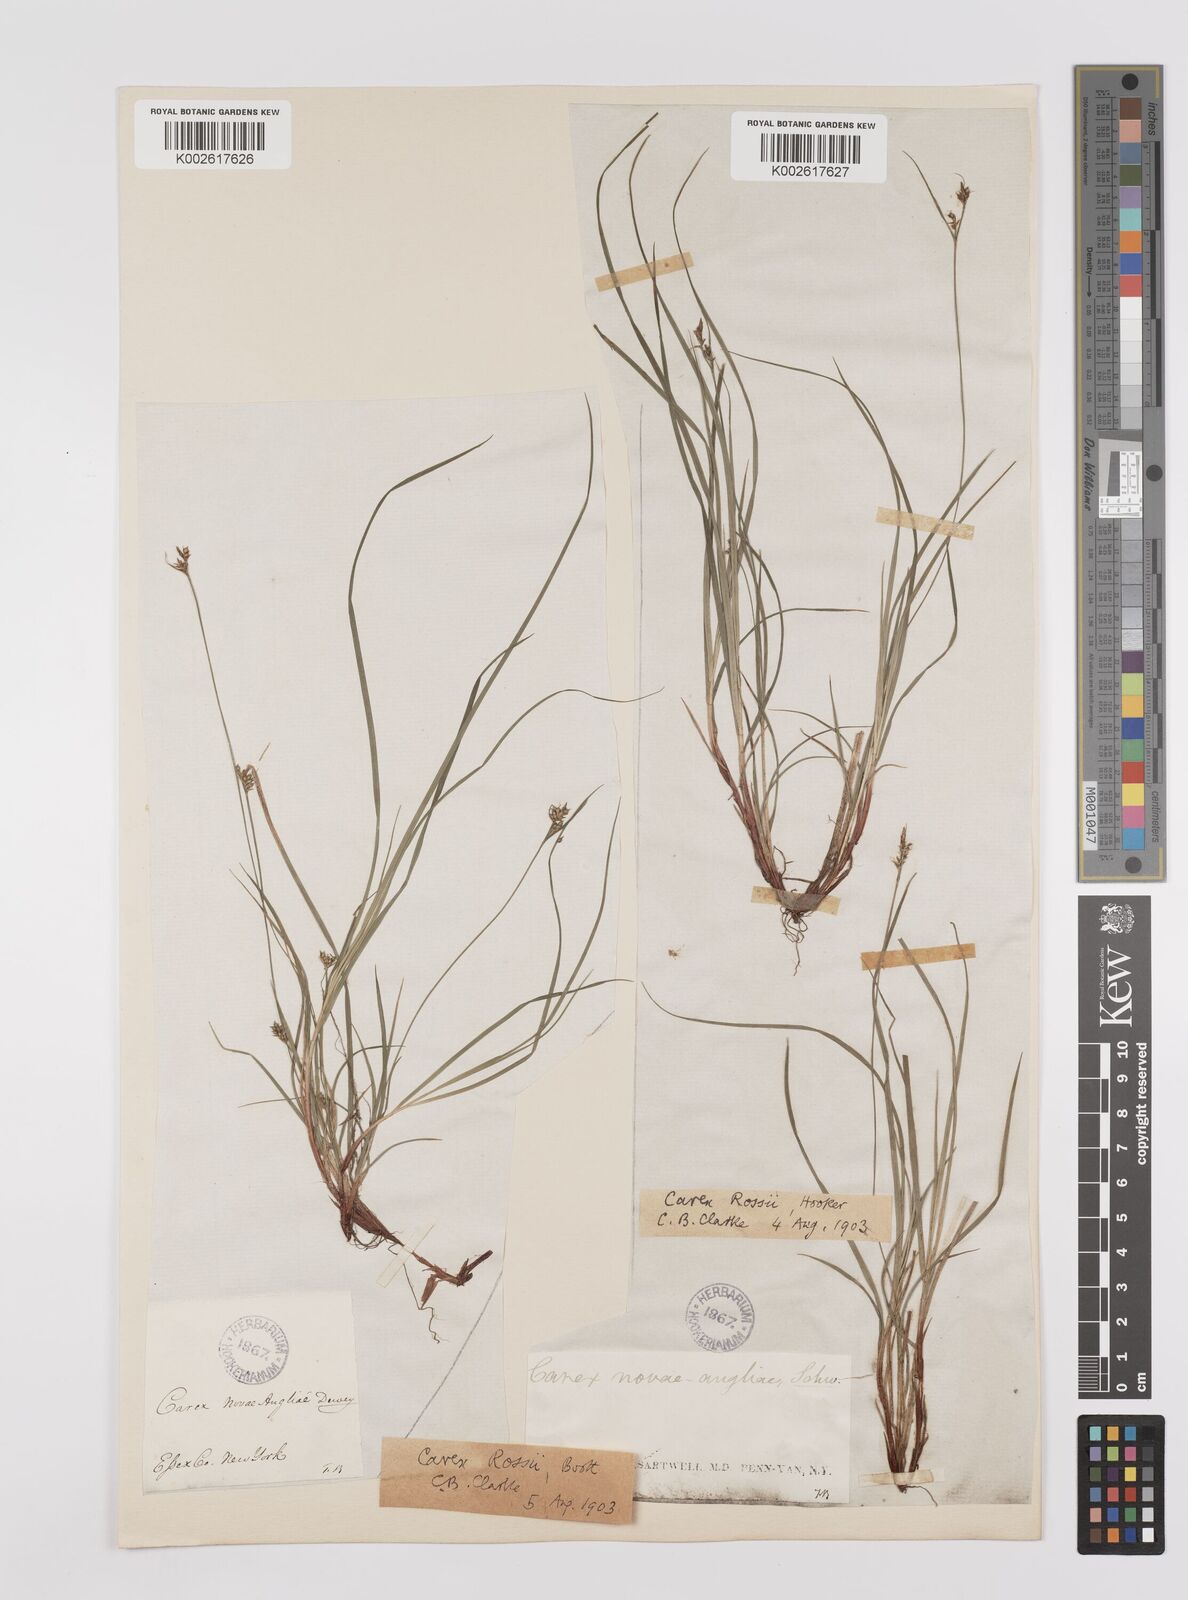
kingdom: Plantae
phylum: Tracheophyta
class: Liliopsida
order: Poales
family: Cyperaceae
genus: Carex
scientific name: Carex rossii
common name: Ross' sedge
